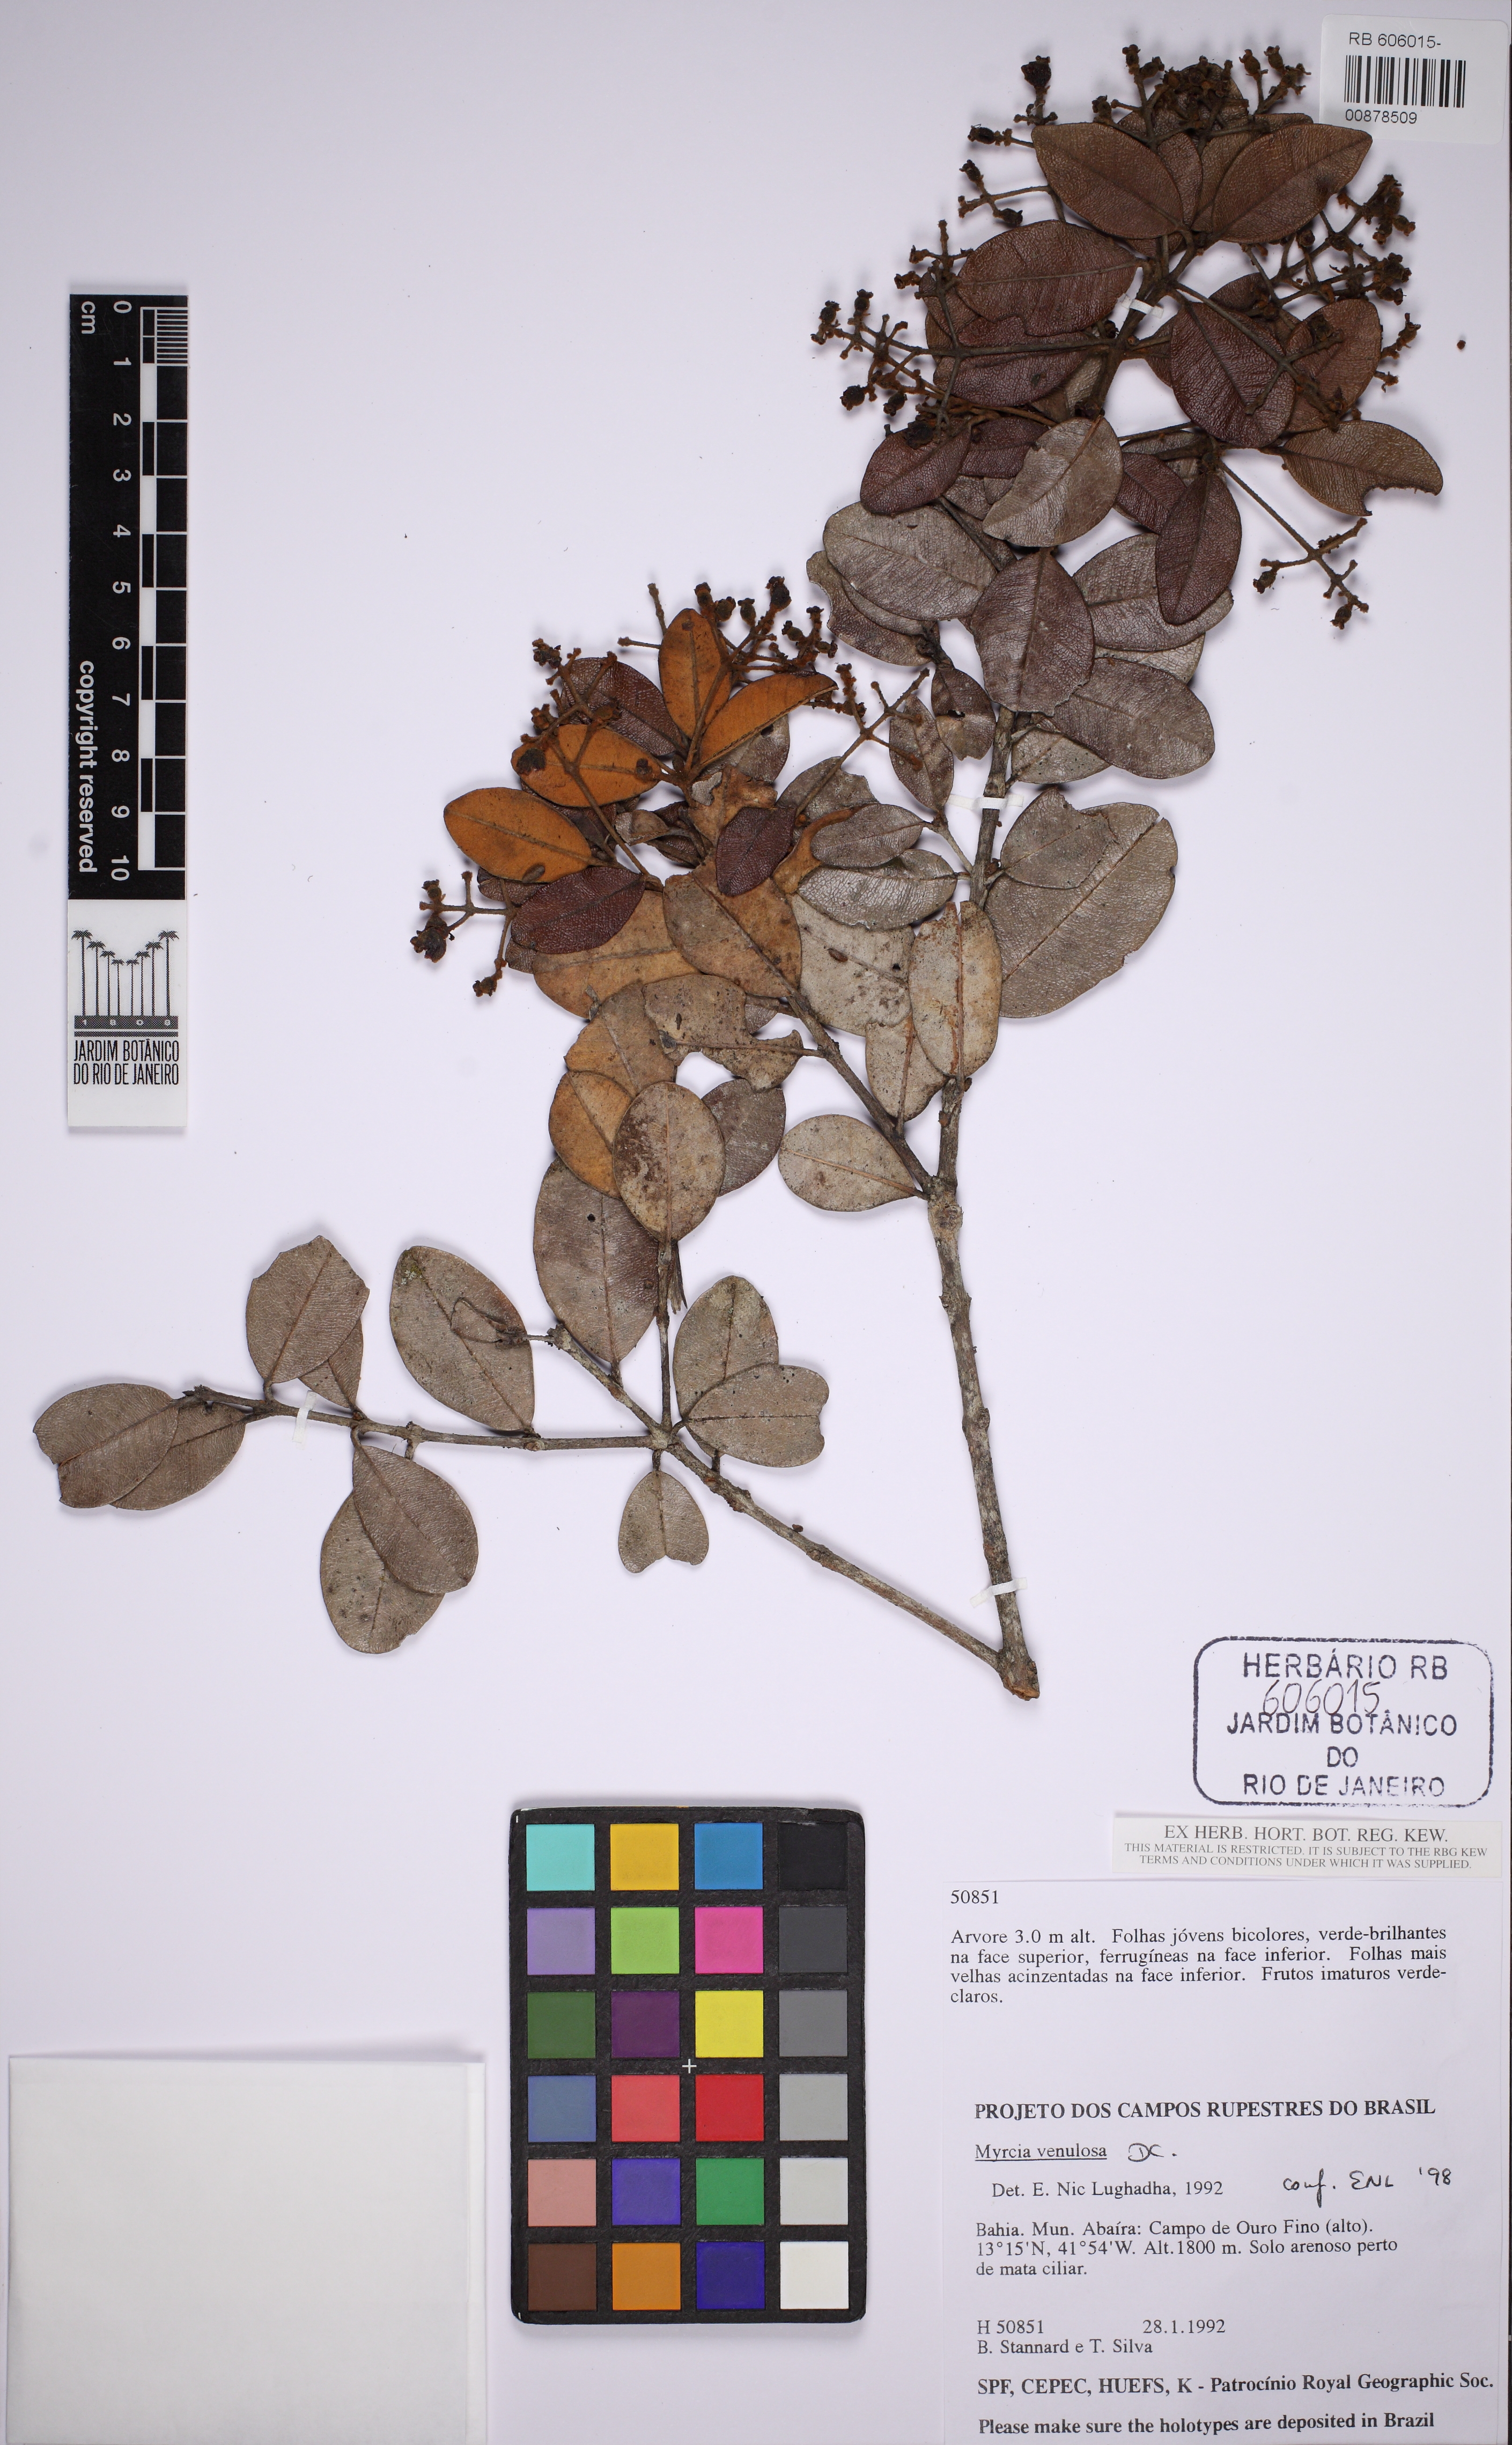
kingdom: Plantae
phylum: Tracheophyta
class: Magnoliopsida
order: Myrtales
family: Myrtaceae
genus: Myrcia
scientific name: Myrcia venulosa
